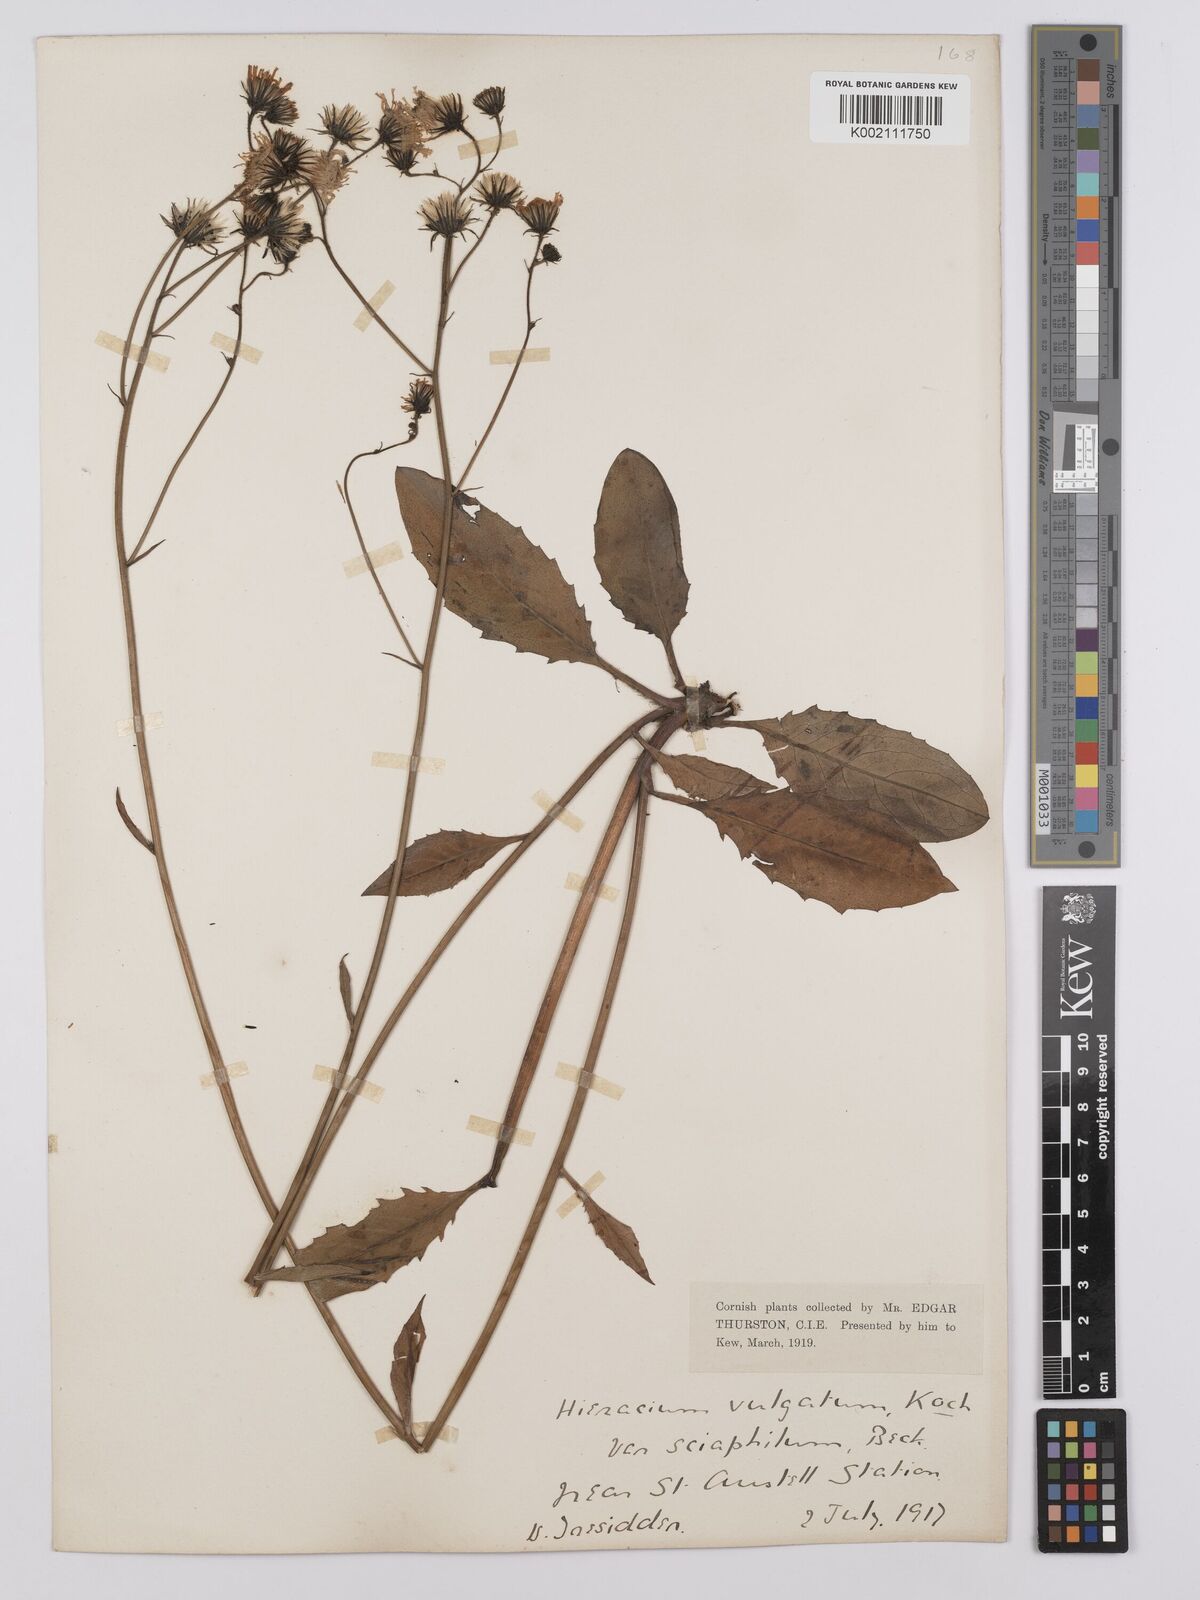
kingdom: Plantae
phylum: Tracheophyta
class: Magnoliopsida
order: Asterales
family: Asteraceae
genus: Hieracium
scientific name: Hieracium lachenalii
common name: Common hawkweed
